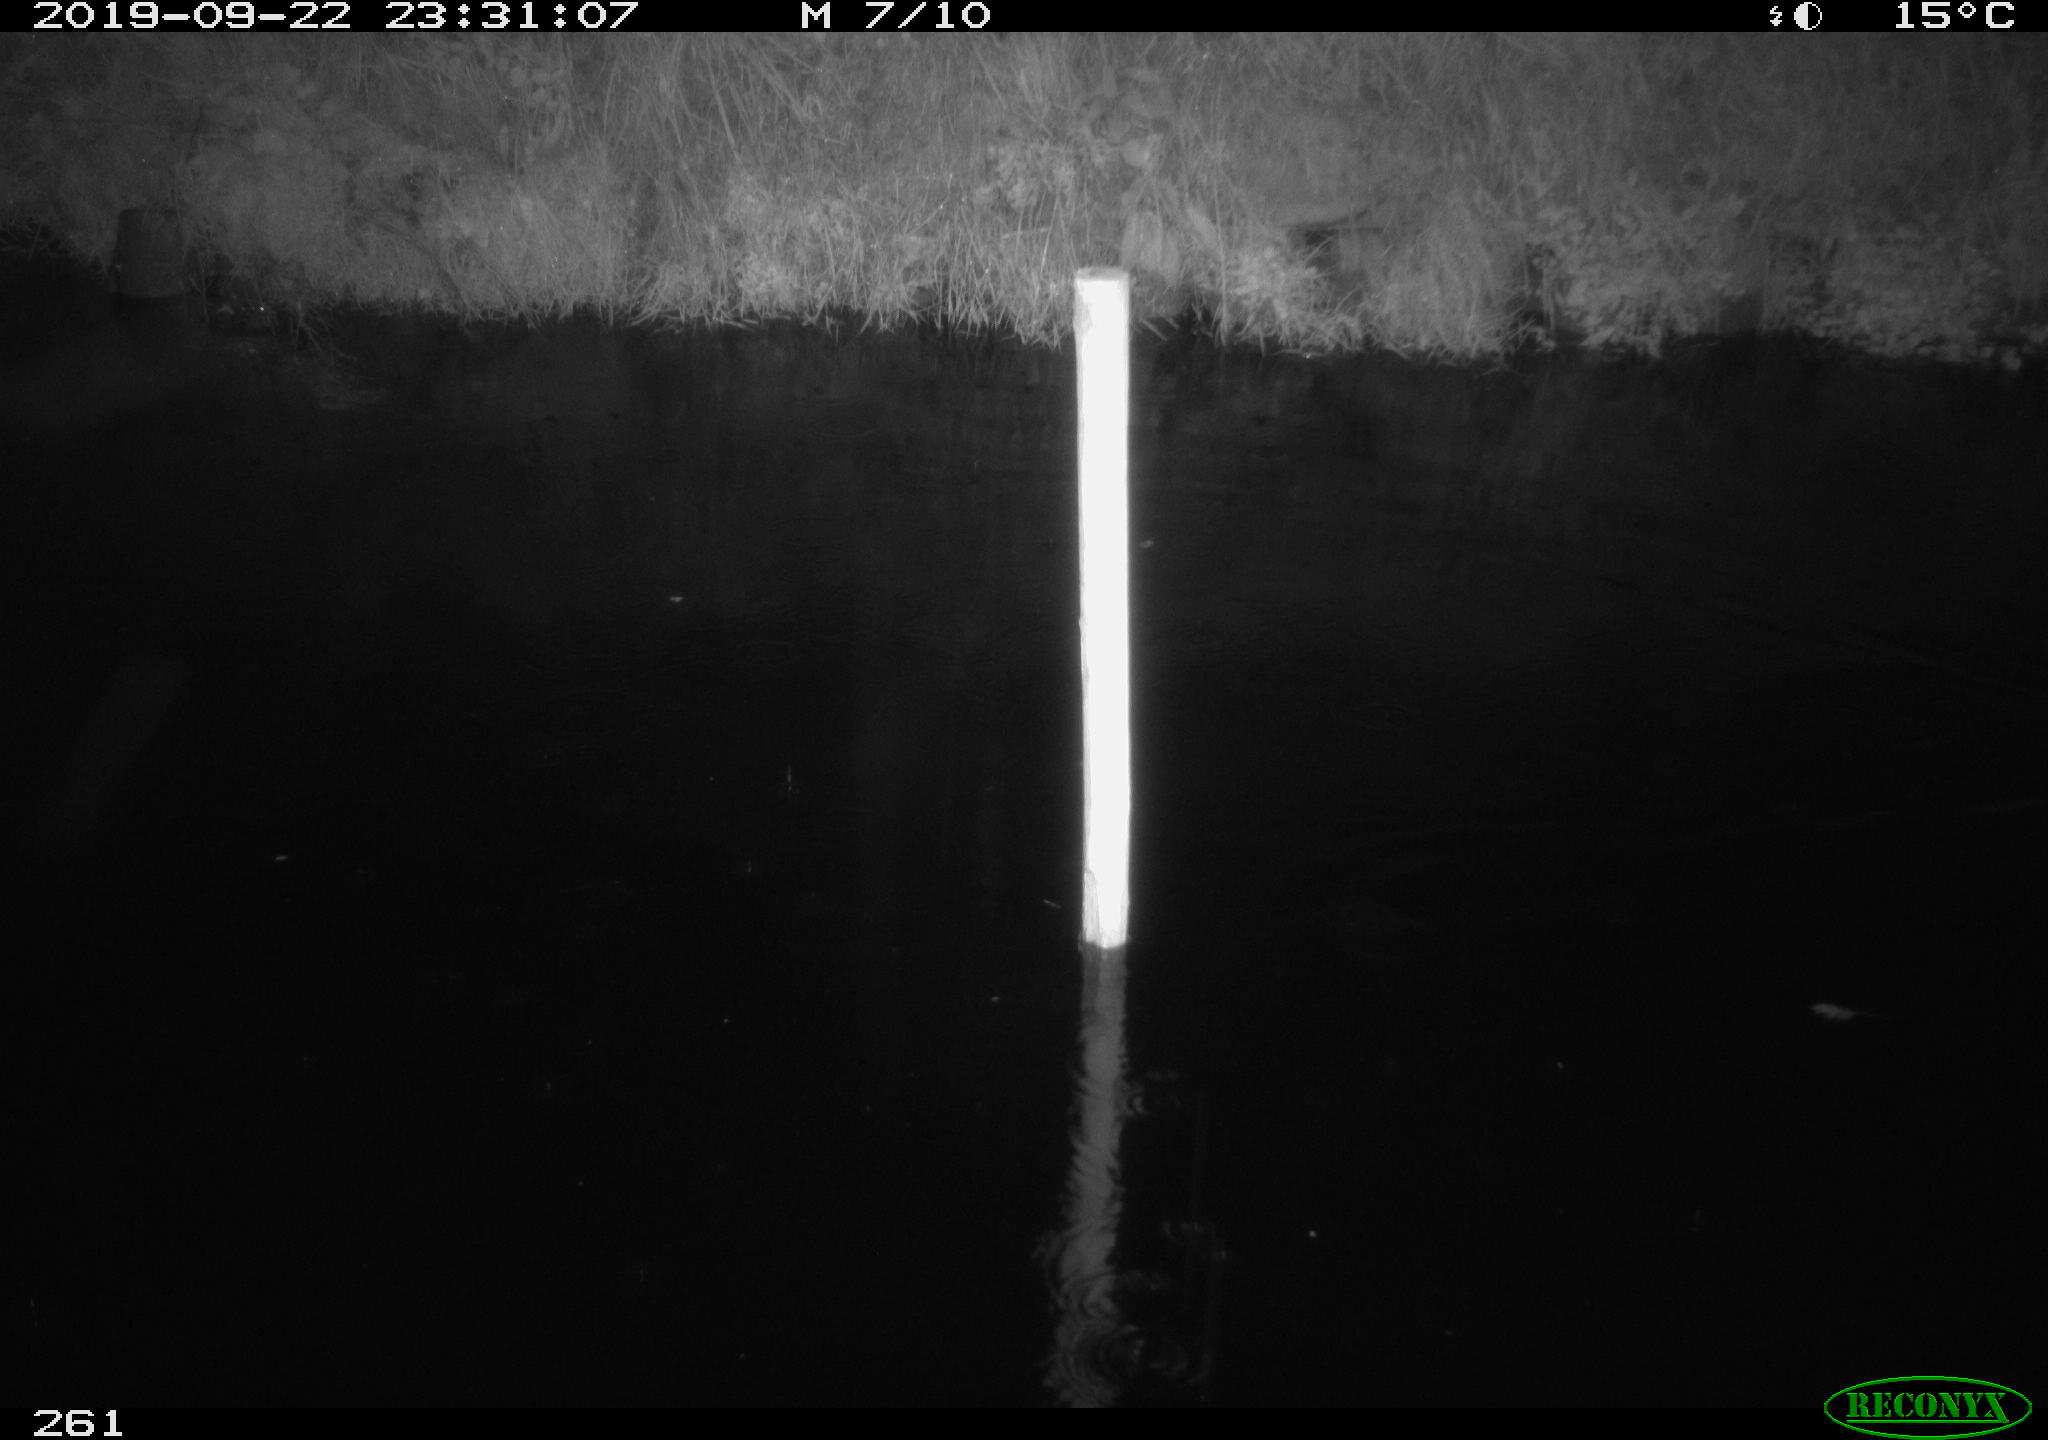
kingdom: Animalia
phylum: Chordata
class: Aves
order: Anseriformes
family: Anatidae
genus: Anas
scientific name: Anas platyrhynchos
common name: Mallard
